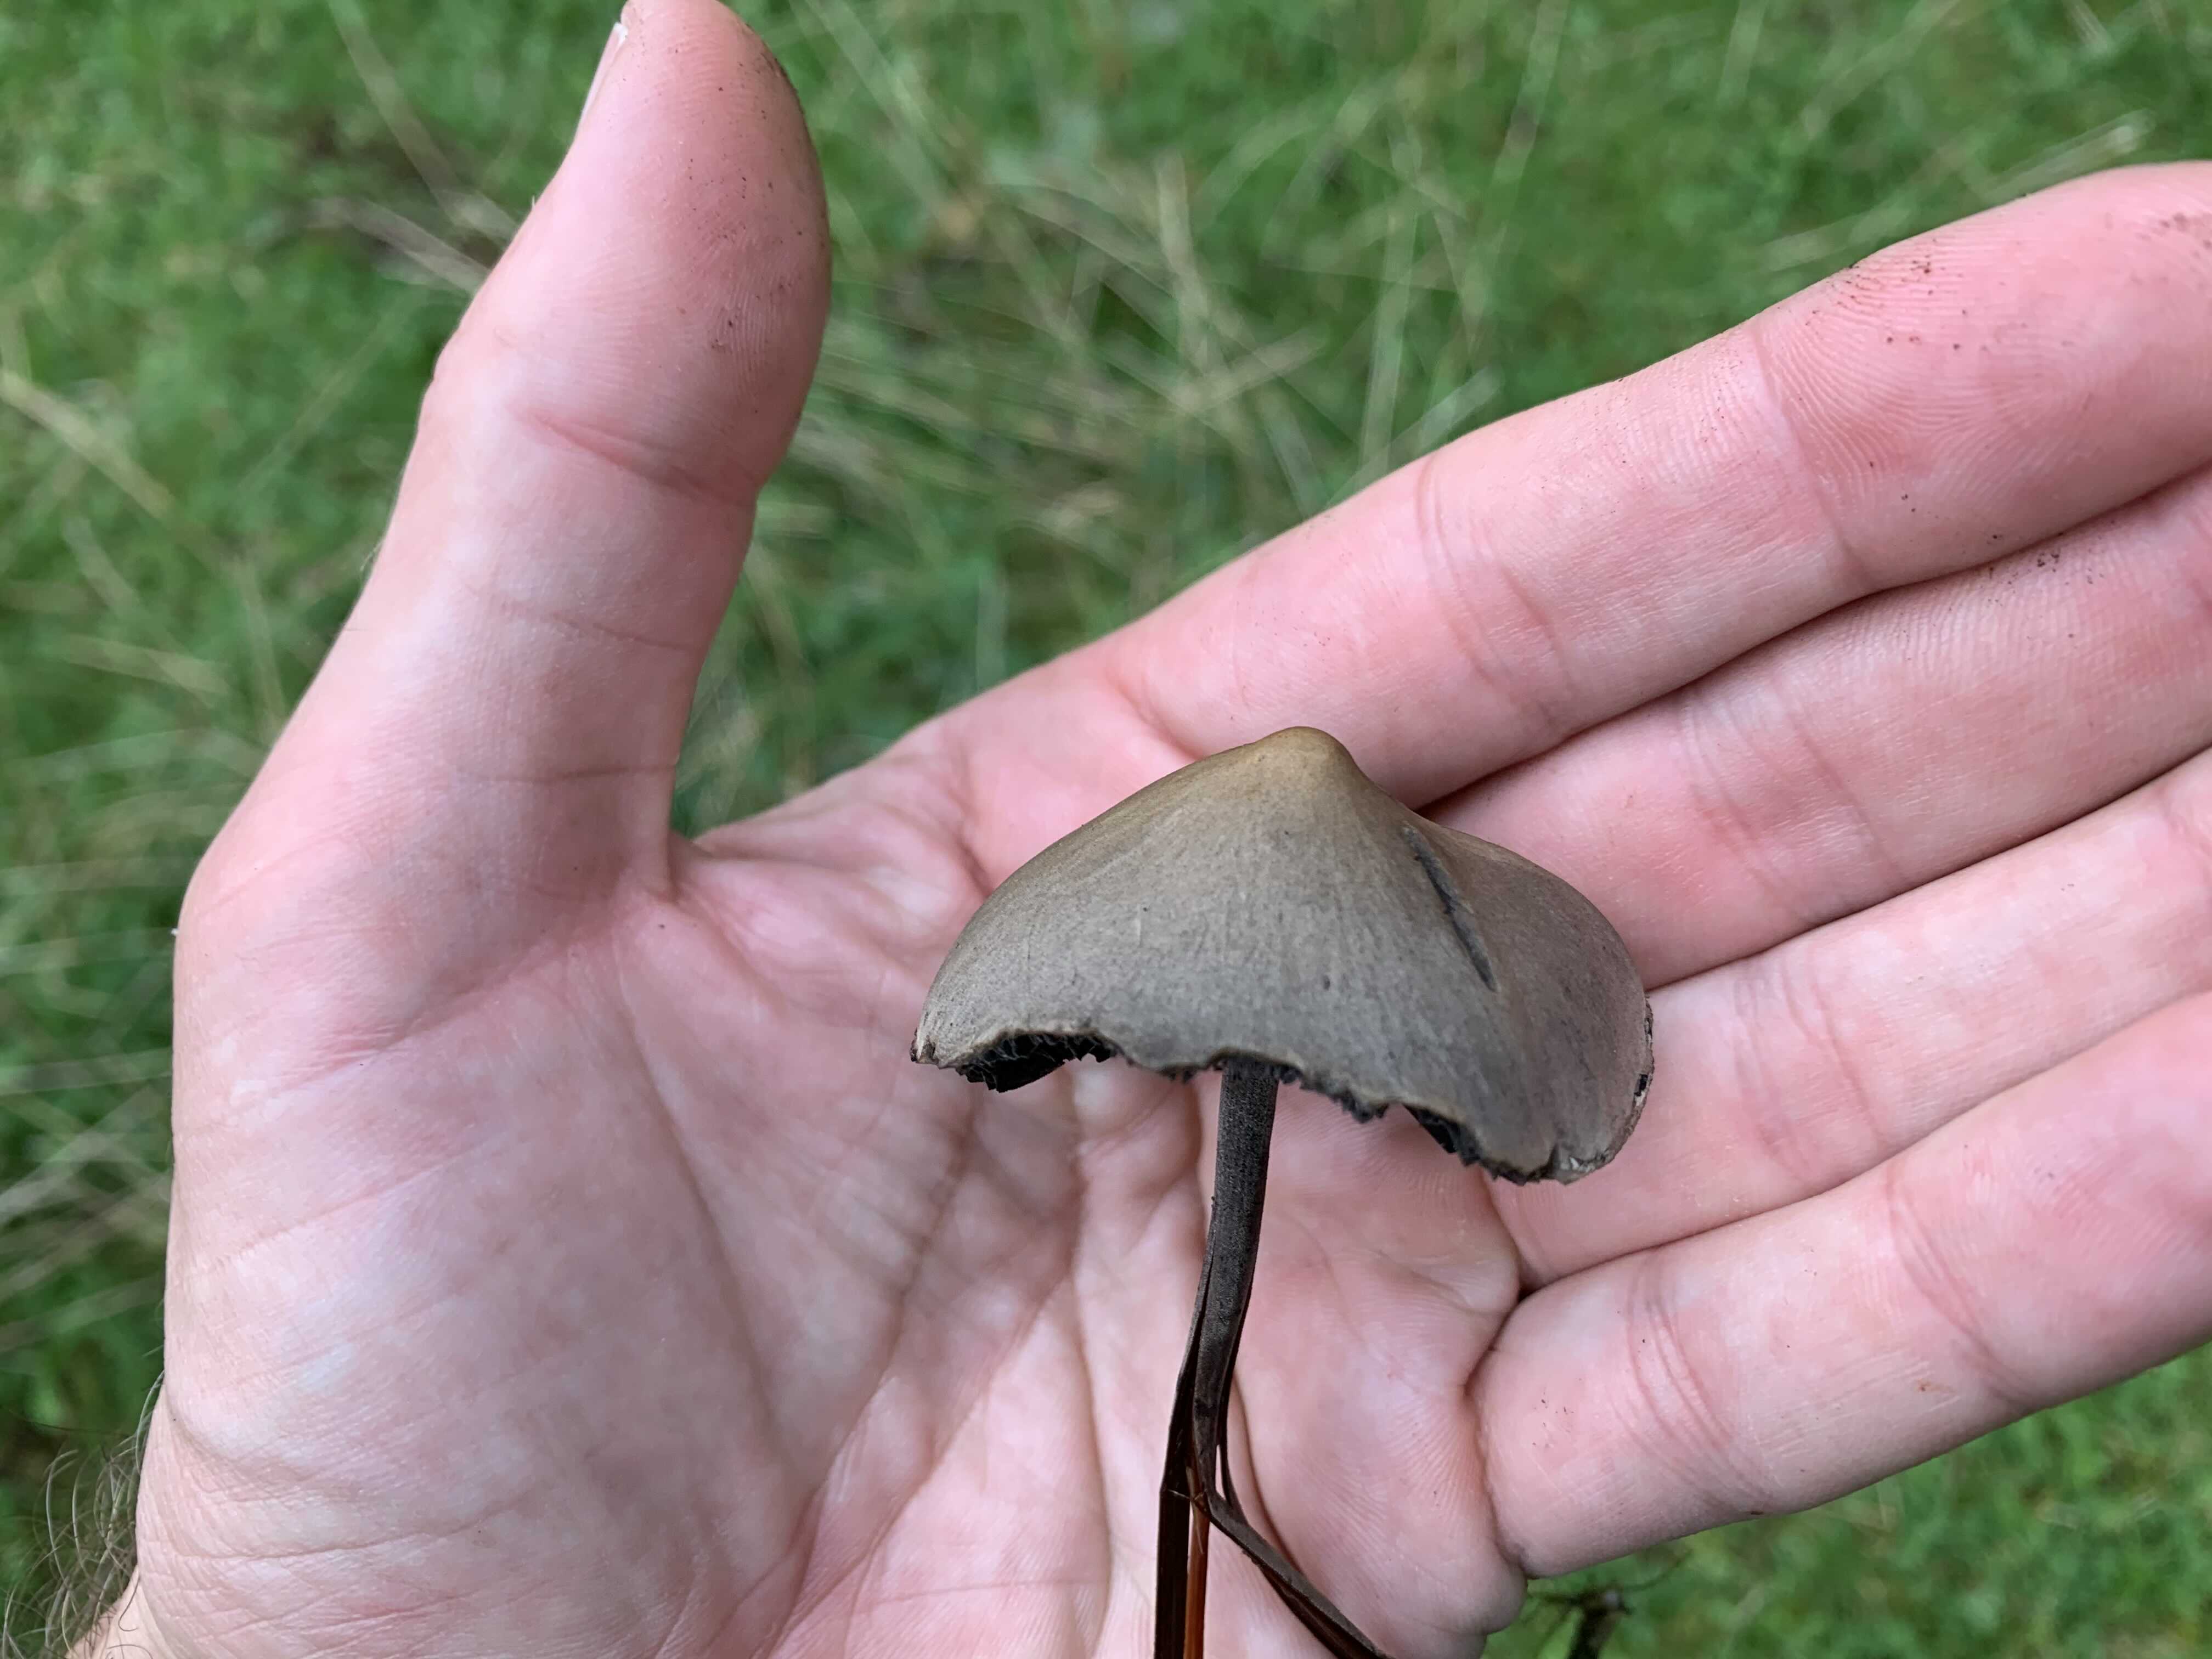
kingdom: Fungi
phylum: Basidiomycota
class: Agaricomycetes
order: Agaricales
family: Bolbitiaceae
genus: Panaeolus
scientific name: Panaeolus
